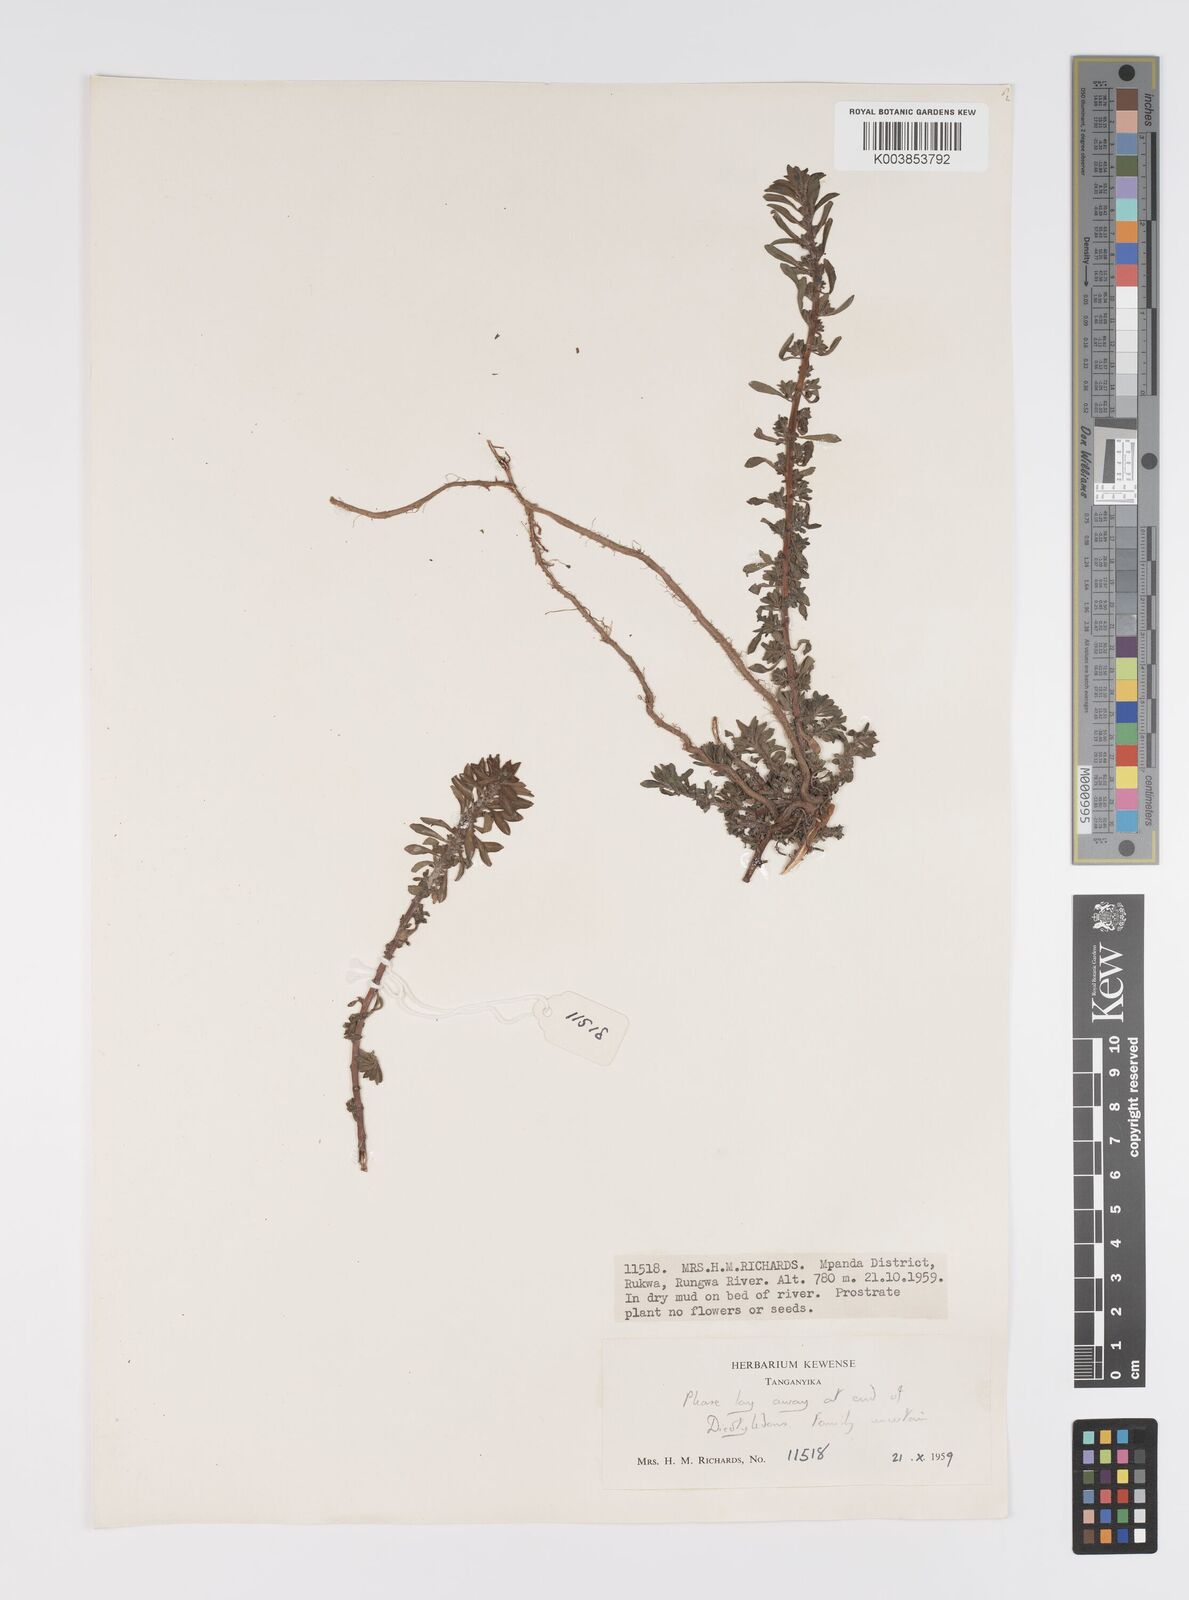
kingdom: Plantae
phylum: Tracheophyta
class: Magnoliopsida
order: Myrtales
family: Onagraceae
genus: Ludwigia
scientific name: Ludwigia repens
